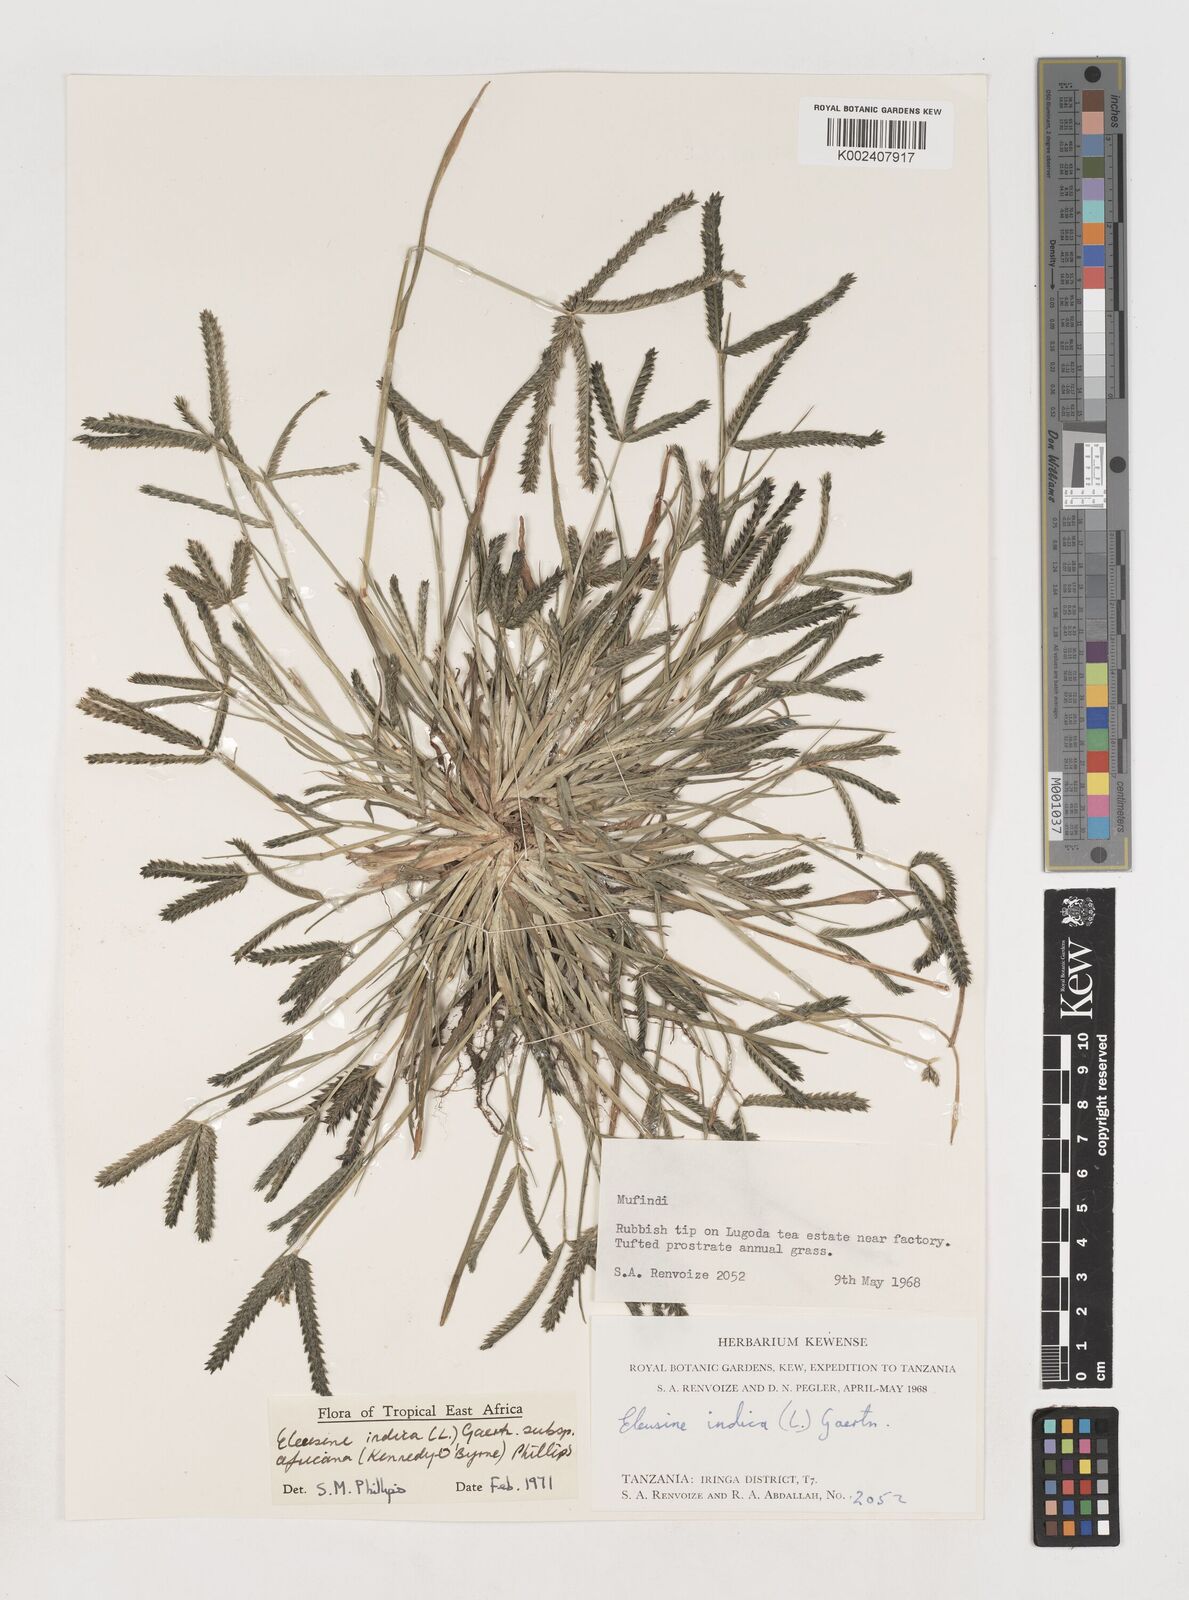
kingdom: Plantae
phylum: Tracheophyta
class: Liliopsida
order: Poales
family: Poaceae
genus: Eleusine
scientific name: Eleusine africana
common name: Wild african finger millet
